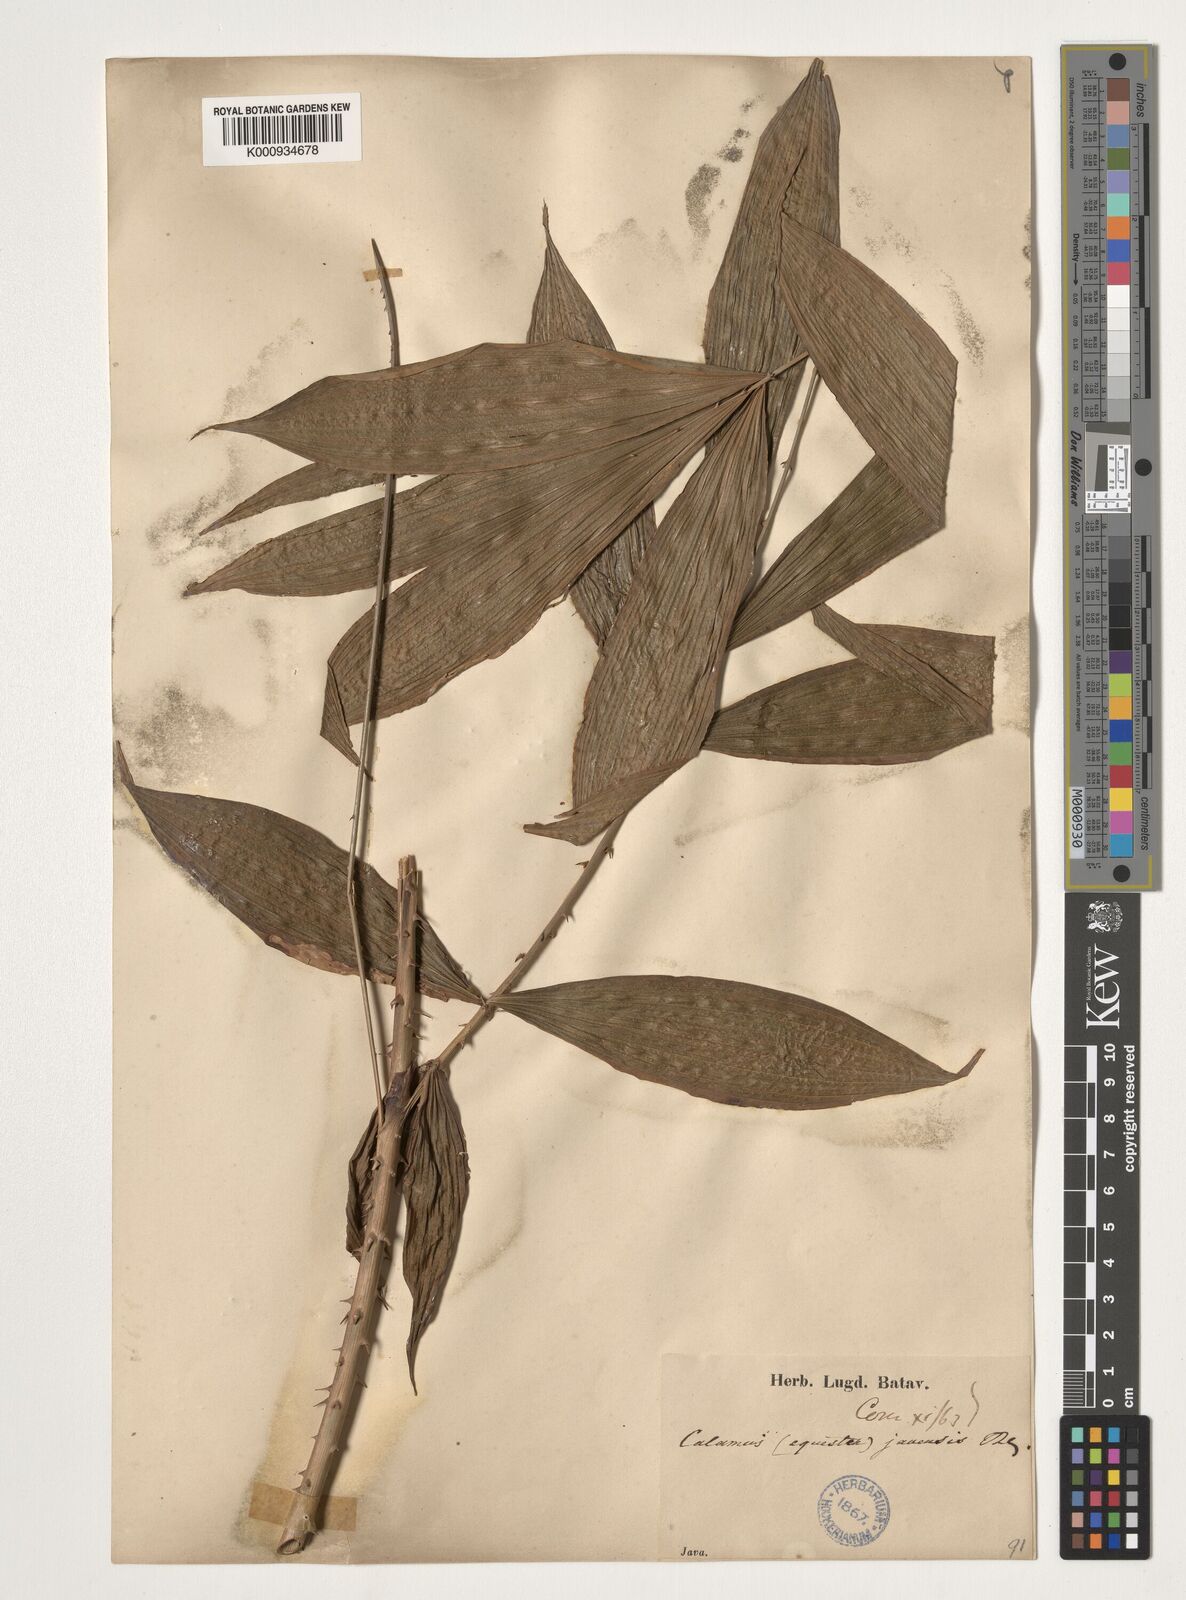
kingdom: Plantae
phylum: Tracheophyta
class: Liliopsida
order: Arecales
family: Arecaceae
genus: Calamus
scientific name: Calamus javensis
